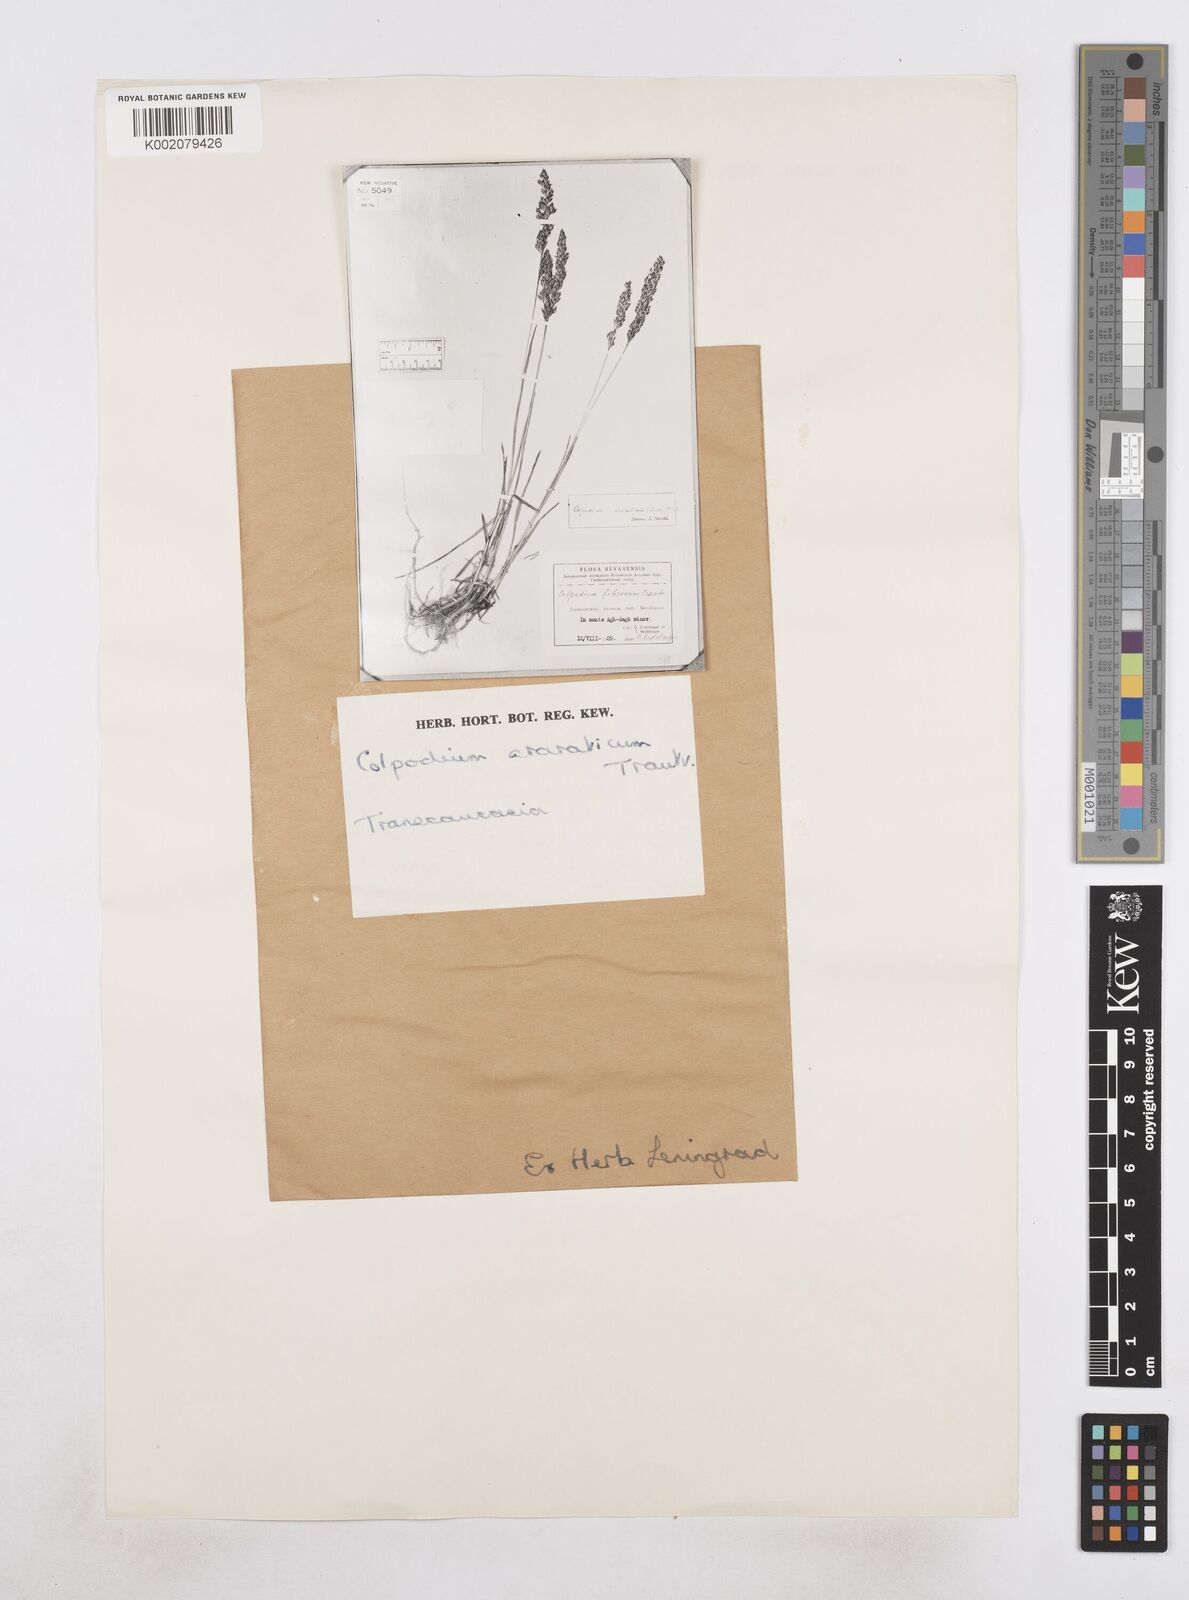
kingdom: Plantae
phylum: Tracheophyta
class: Liliopsida
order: Poales
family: Poaceae
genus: Hyalopodium
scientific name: Hyalopodium araraticum
